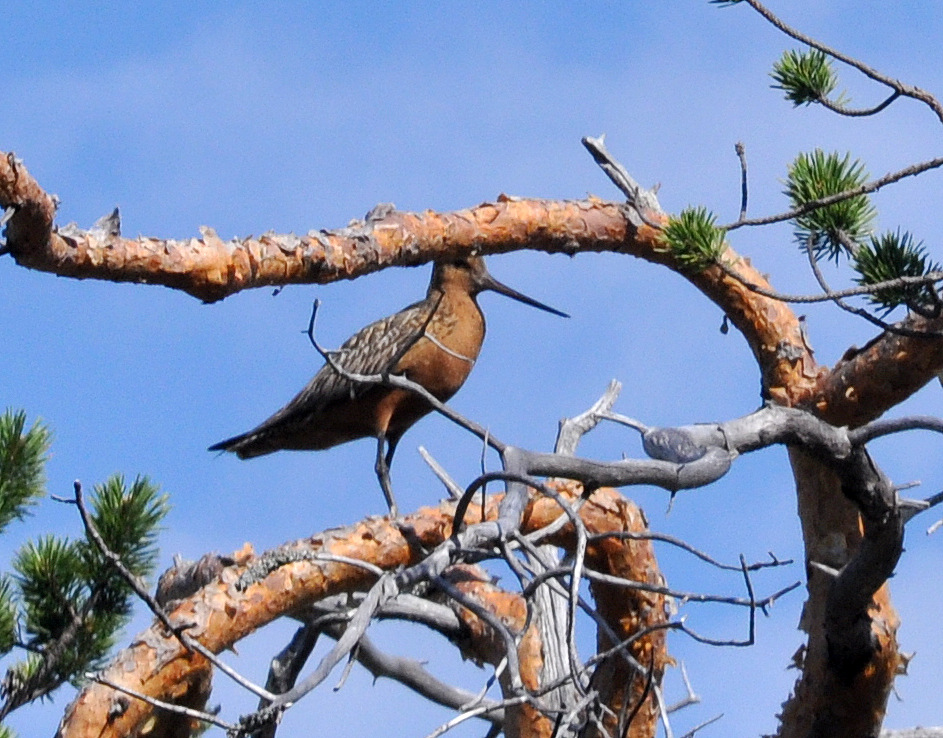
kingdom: Animalia
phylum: Chordata
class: Aves
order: Charadriiformes
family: Scolopacidae
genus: Limosa
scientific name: Limosa lapponica
